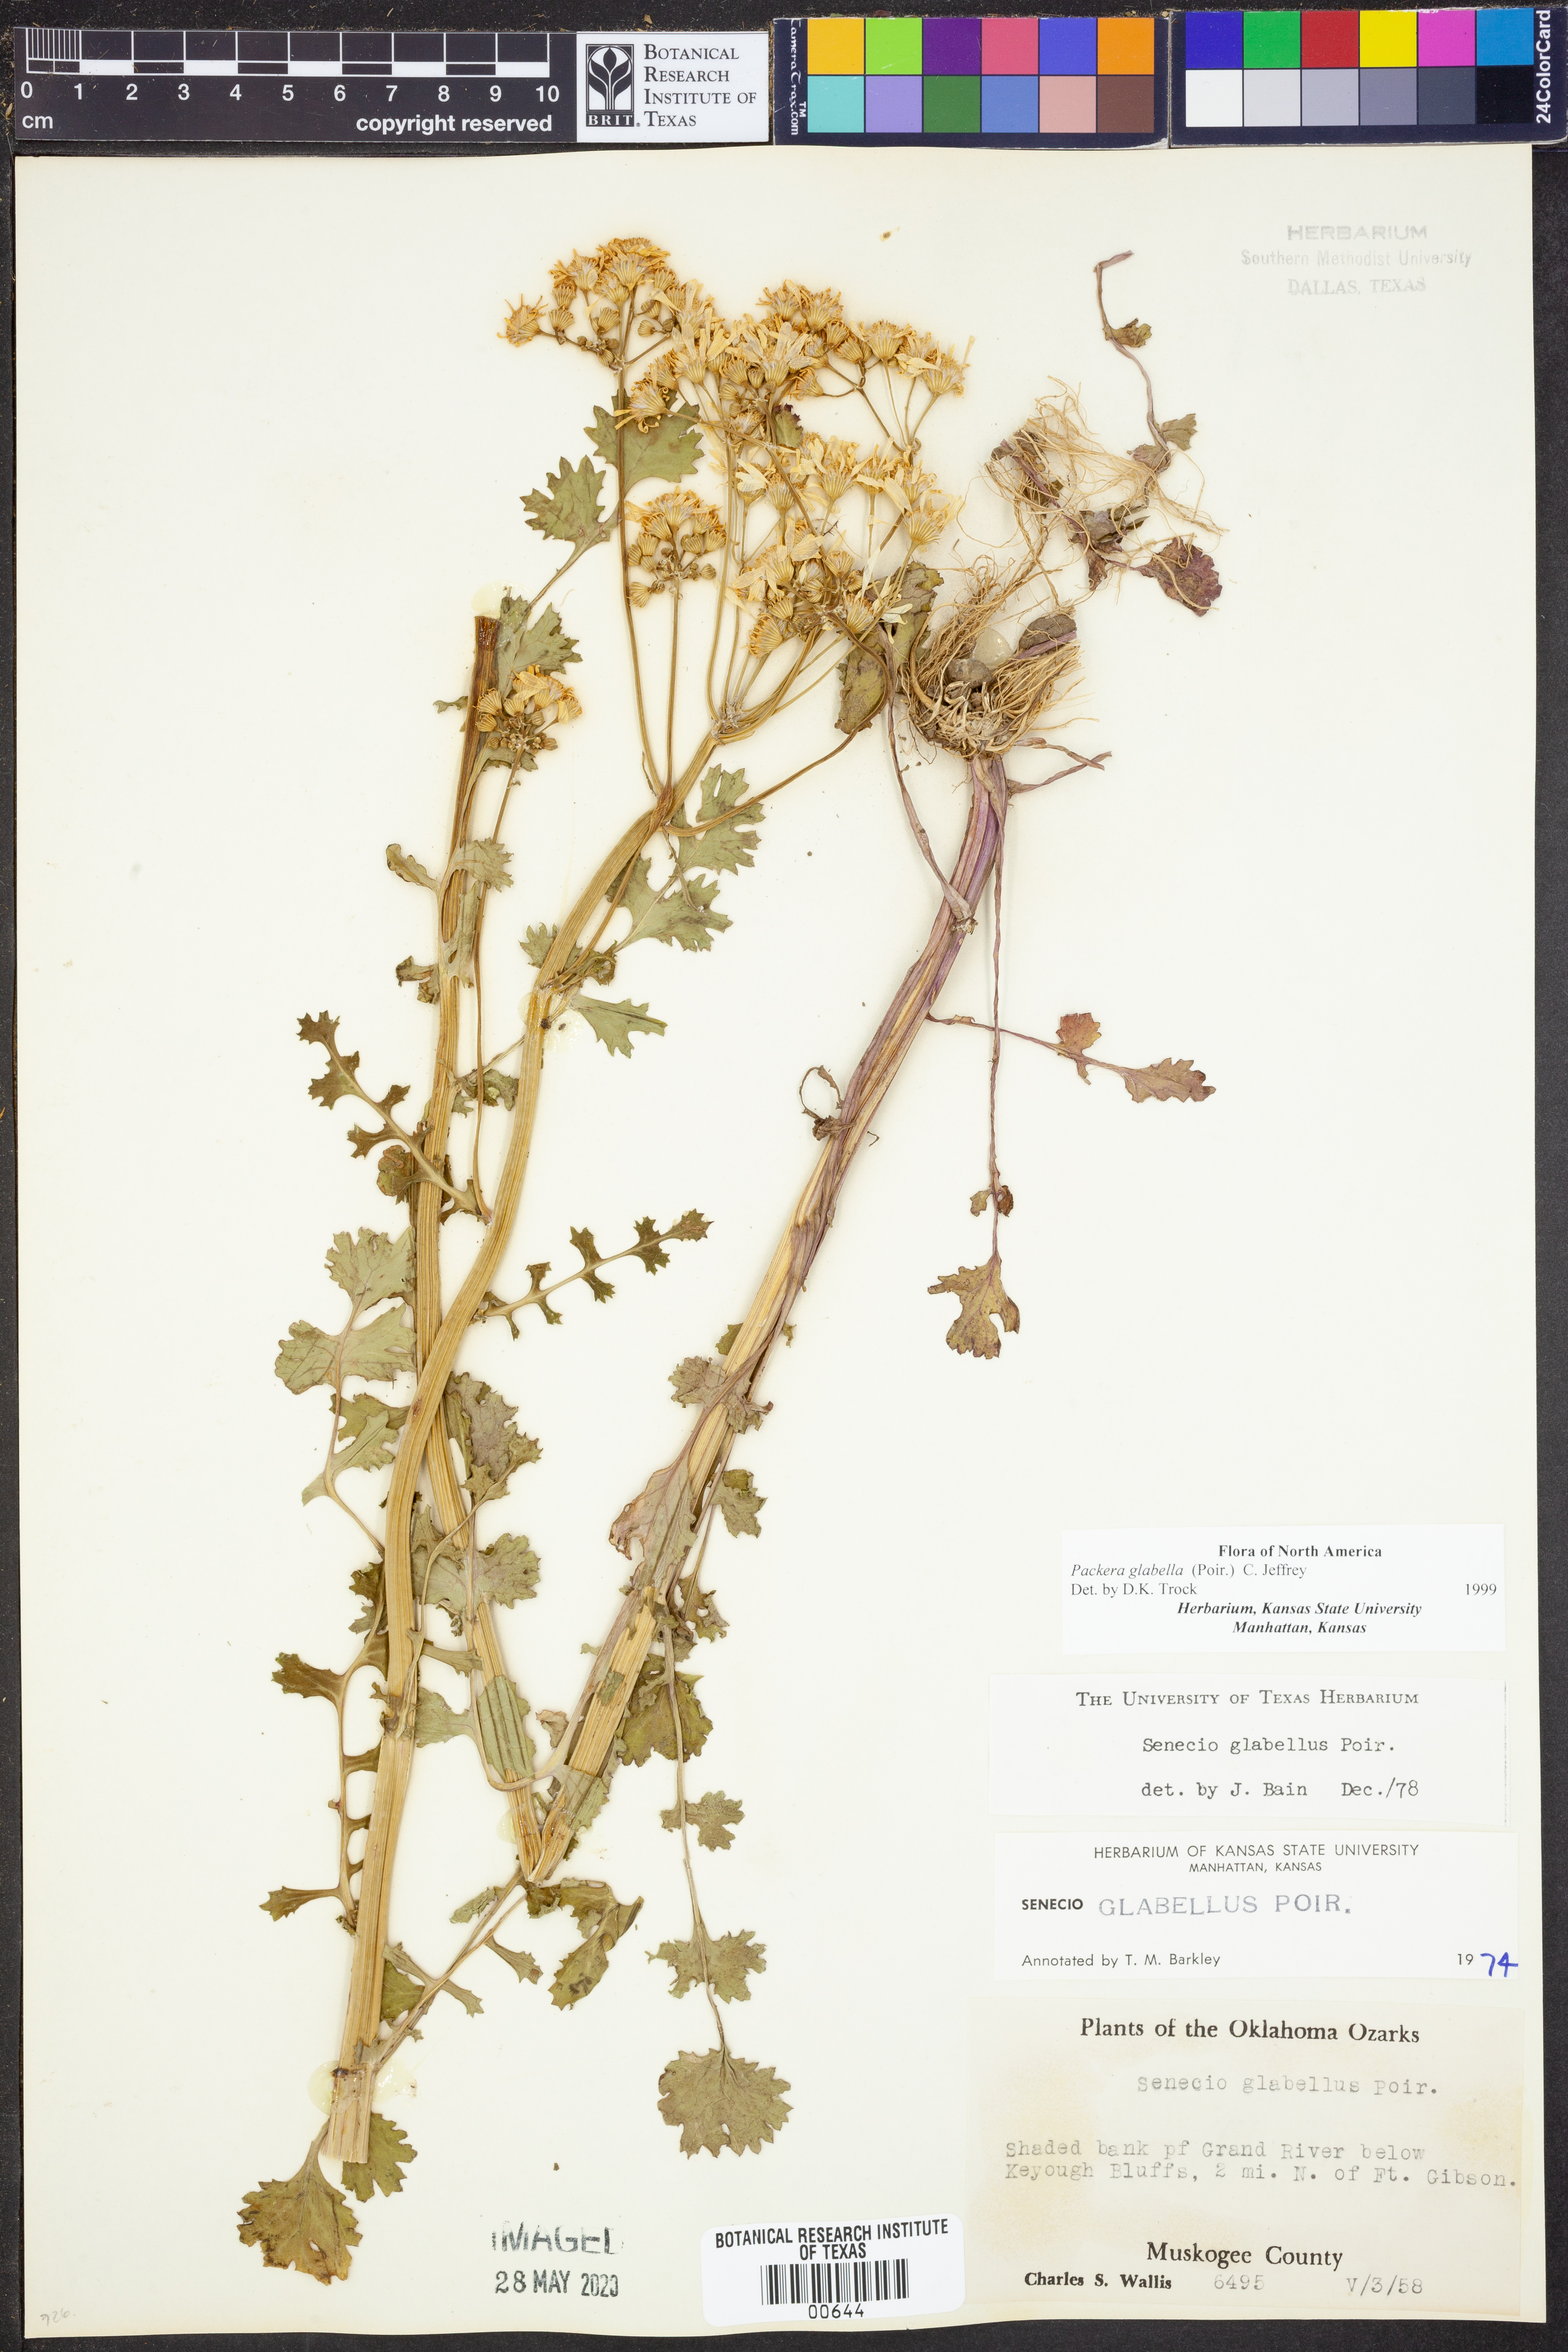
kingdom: Plantae
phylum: Tracheophyta
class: Magnoliopsida
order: Asterales
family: Asteraceae
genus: Packera
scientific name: Packera glabella
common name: Butterweed
